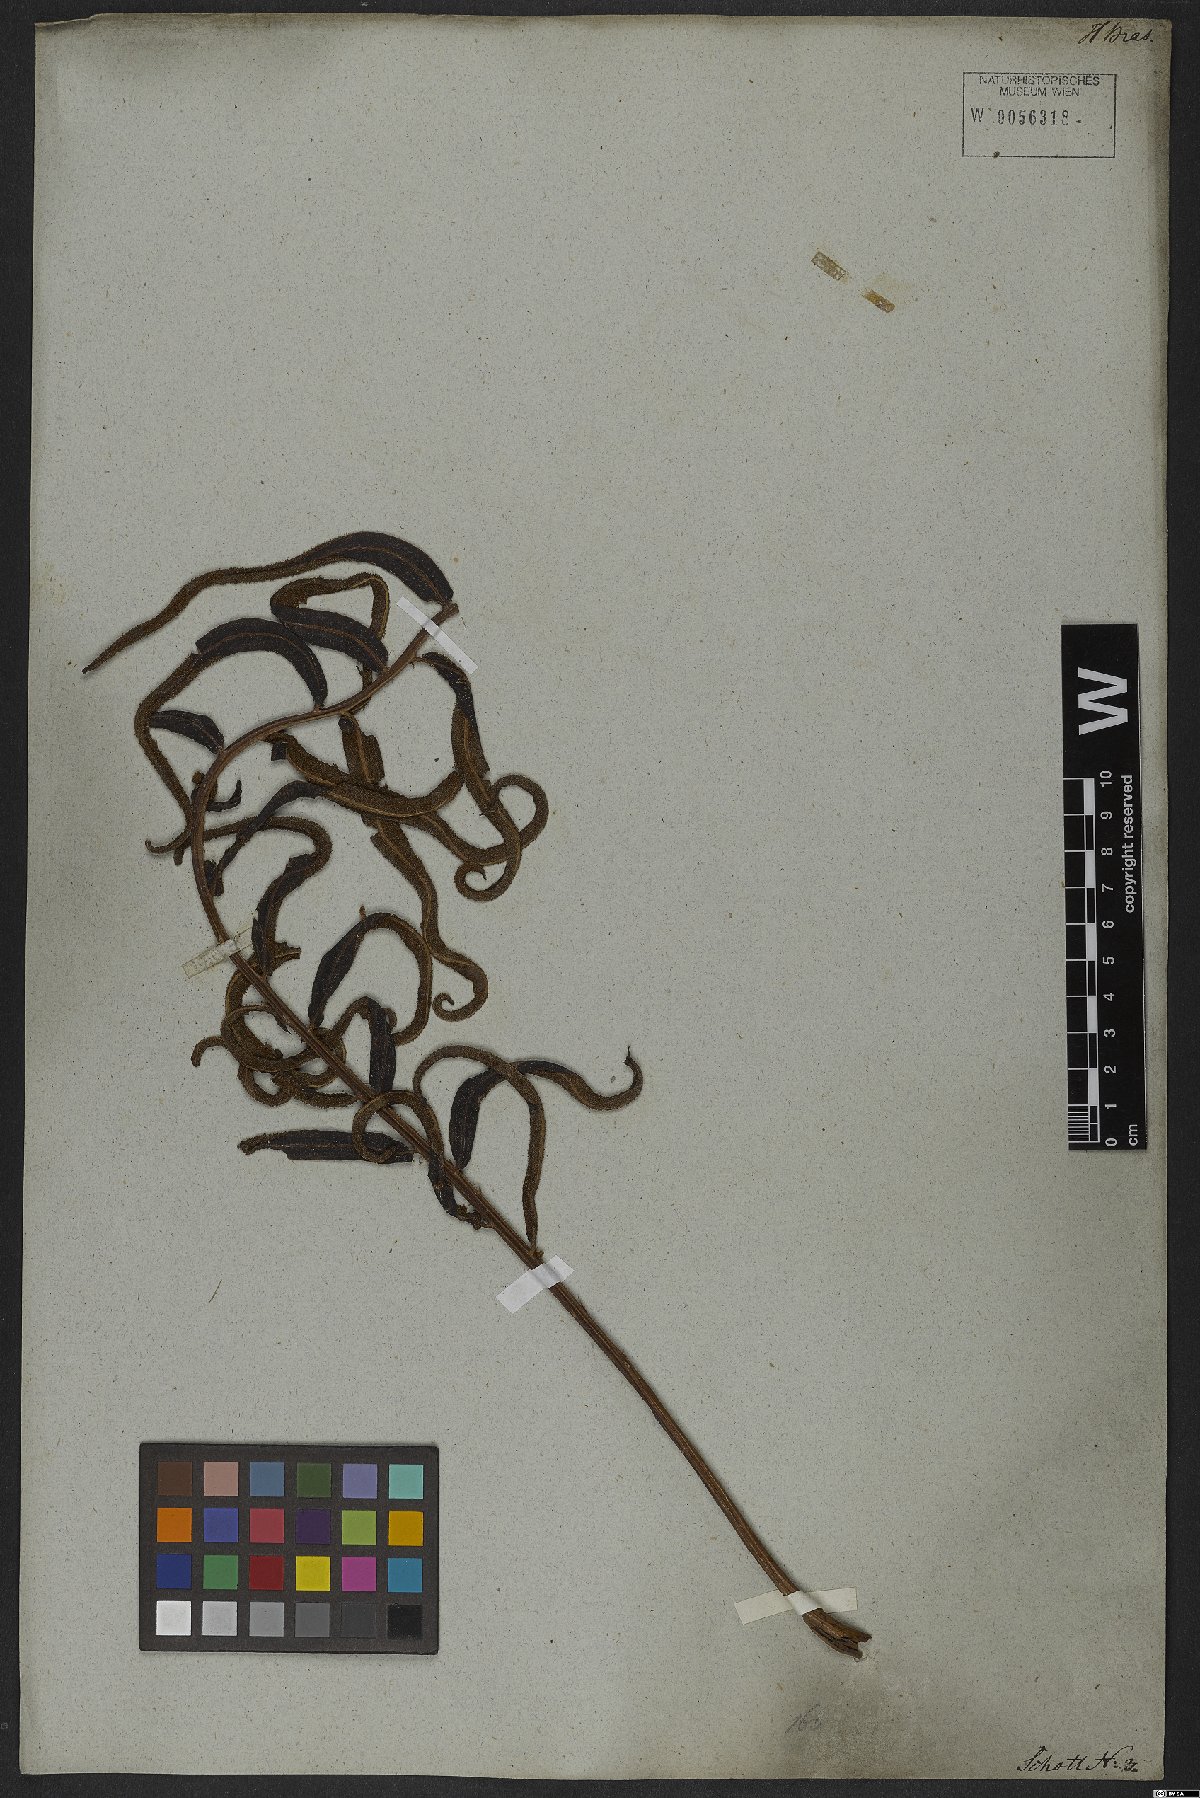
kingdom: Plantae
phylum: Tracheophyta
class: Polypodiopsida
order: Polypodiales
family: Lomariopsidaceae
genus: Lomariopsis
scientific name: Lomariopsis marginata
